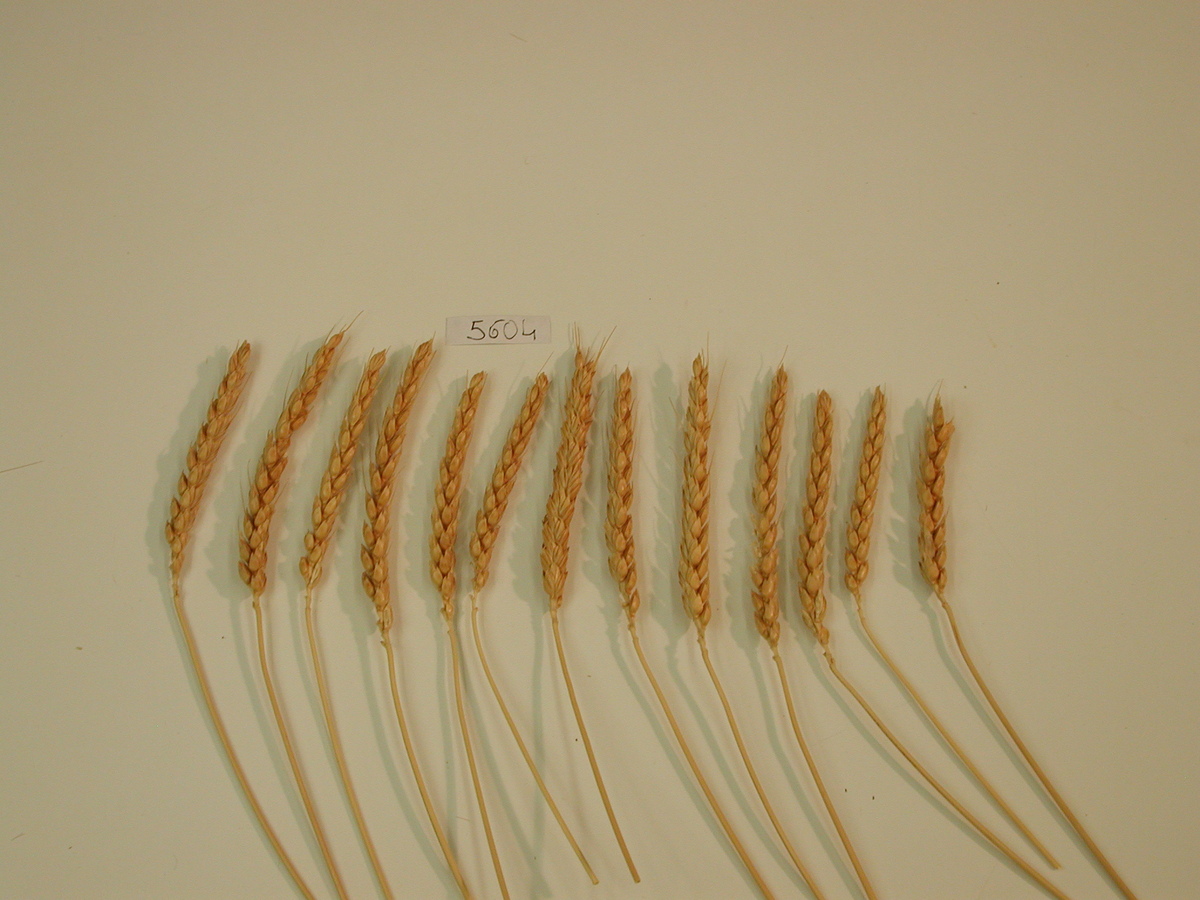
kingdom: Plantae
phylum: Tracheophyta
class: Liliopsida
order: Poales
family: Poaceae
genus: Triticum
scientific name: Triticum
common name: Wheat
